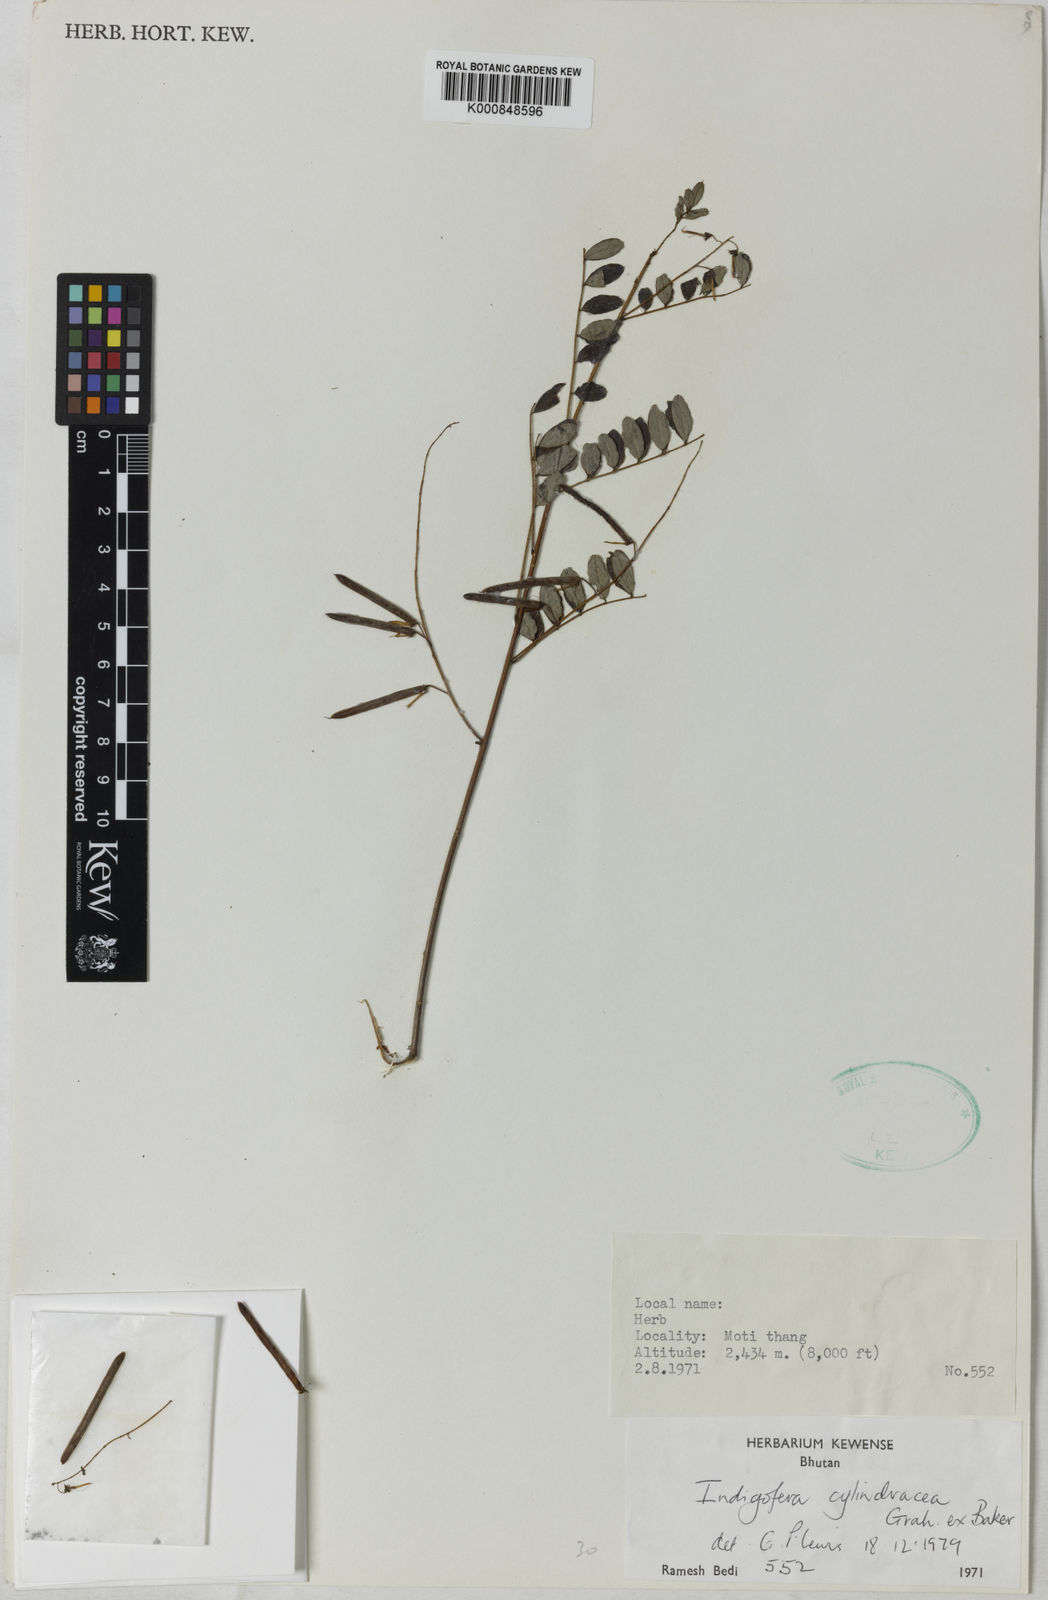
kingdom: Plantae
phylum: Tracheophyta
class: Magnoliopsida
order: Fabales
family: Fabaceae
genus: Indigofera
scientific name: Indigofera cylindracea
